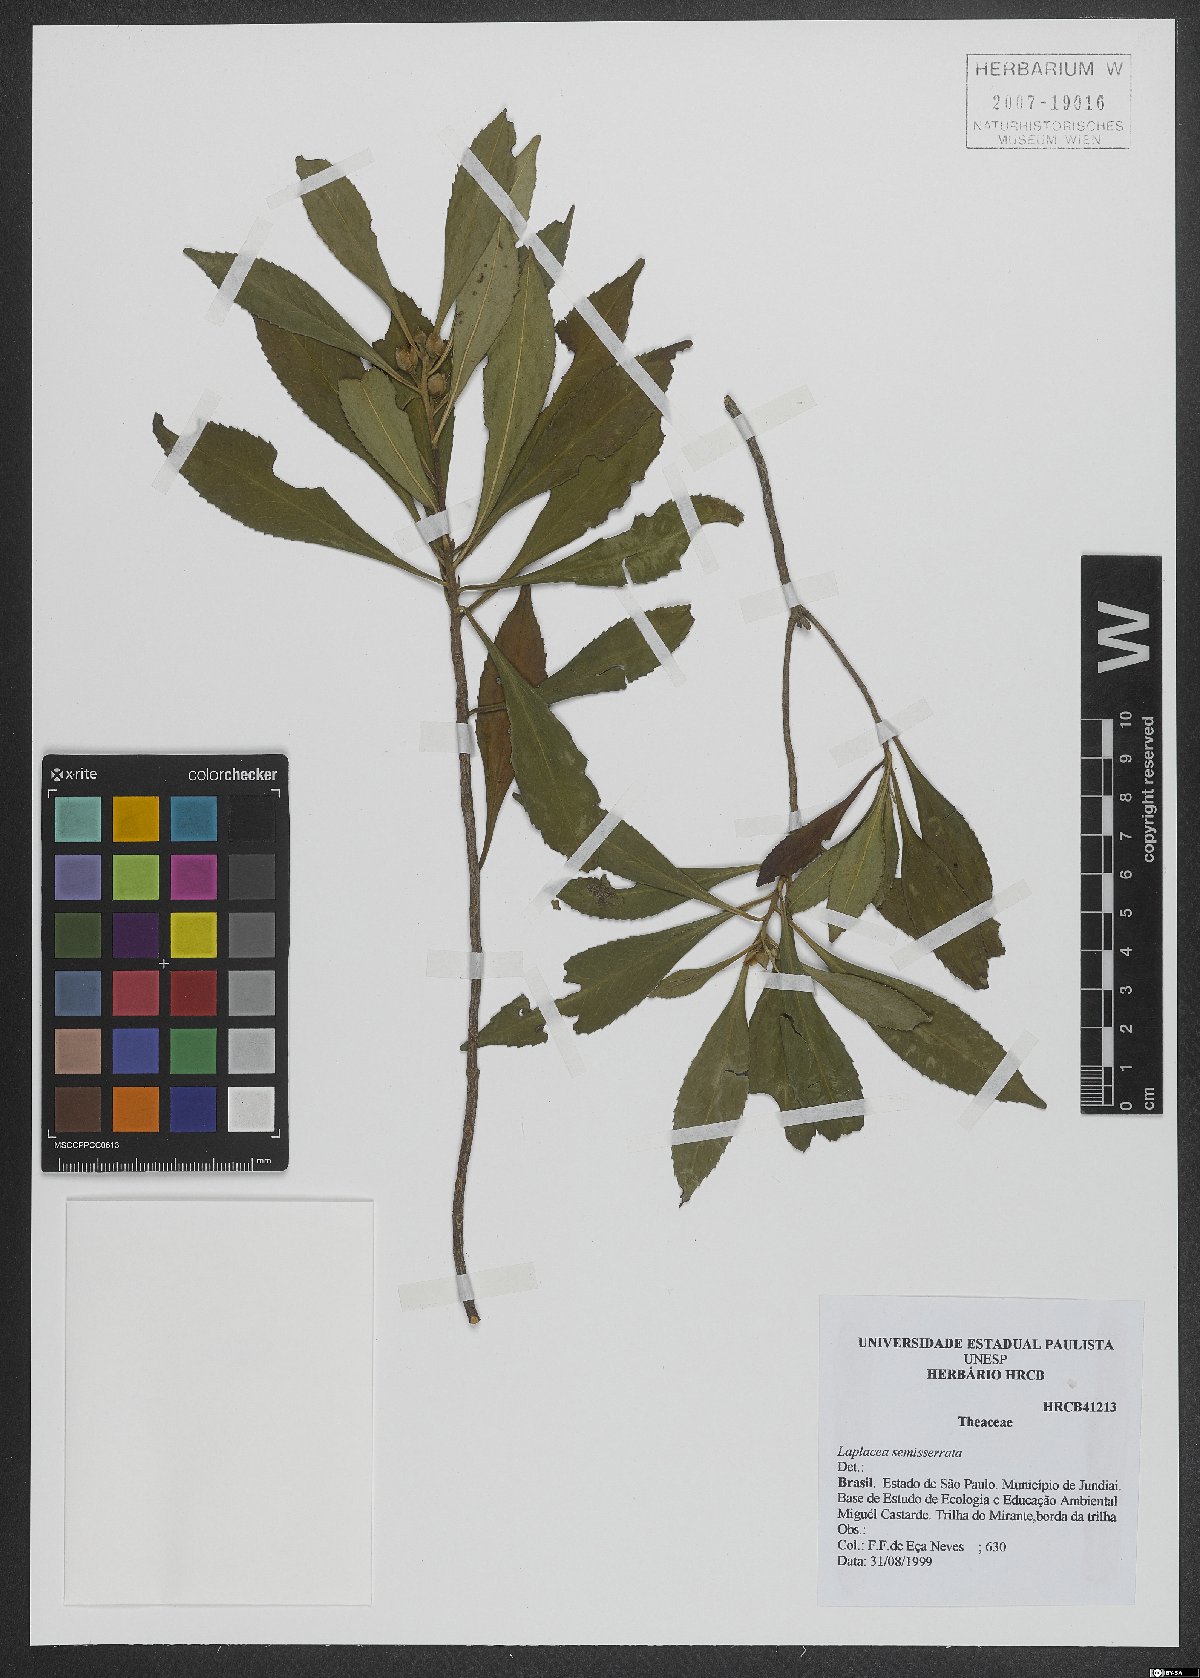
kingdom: Plantae
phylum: Tracheophyta
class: Magnoliopsida
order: Ericales
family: Theaceae
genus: Gordonia
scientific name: Gordonia fruticosa
